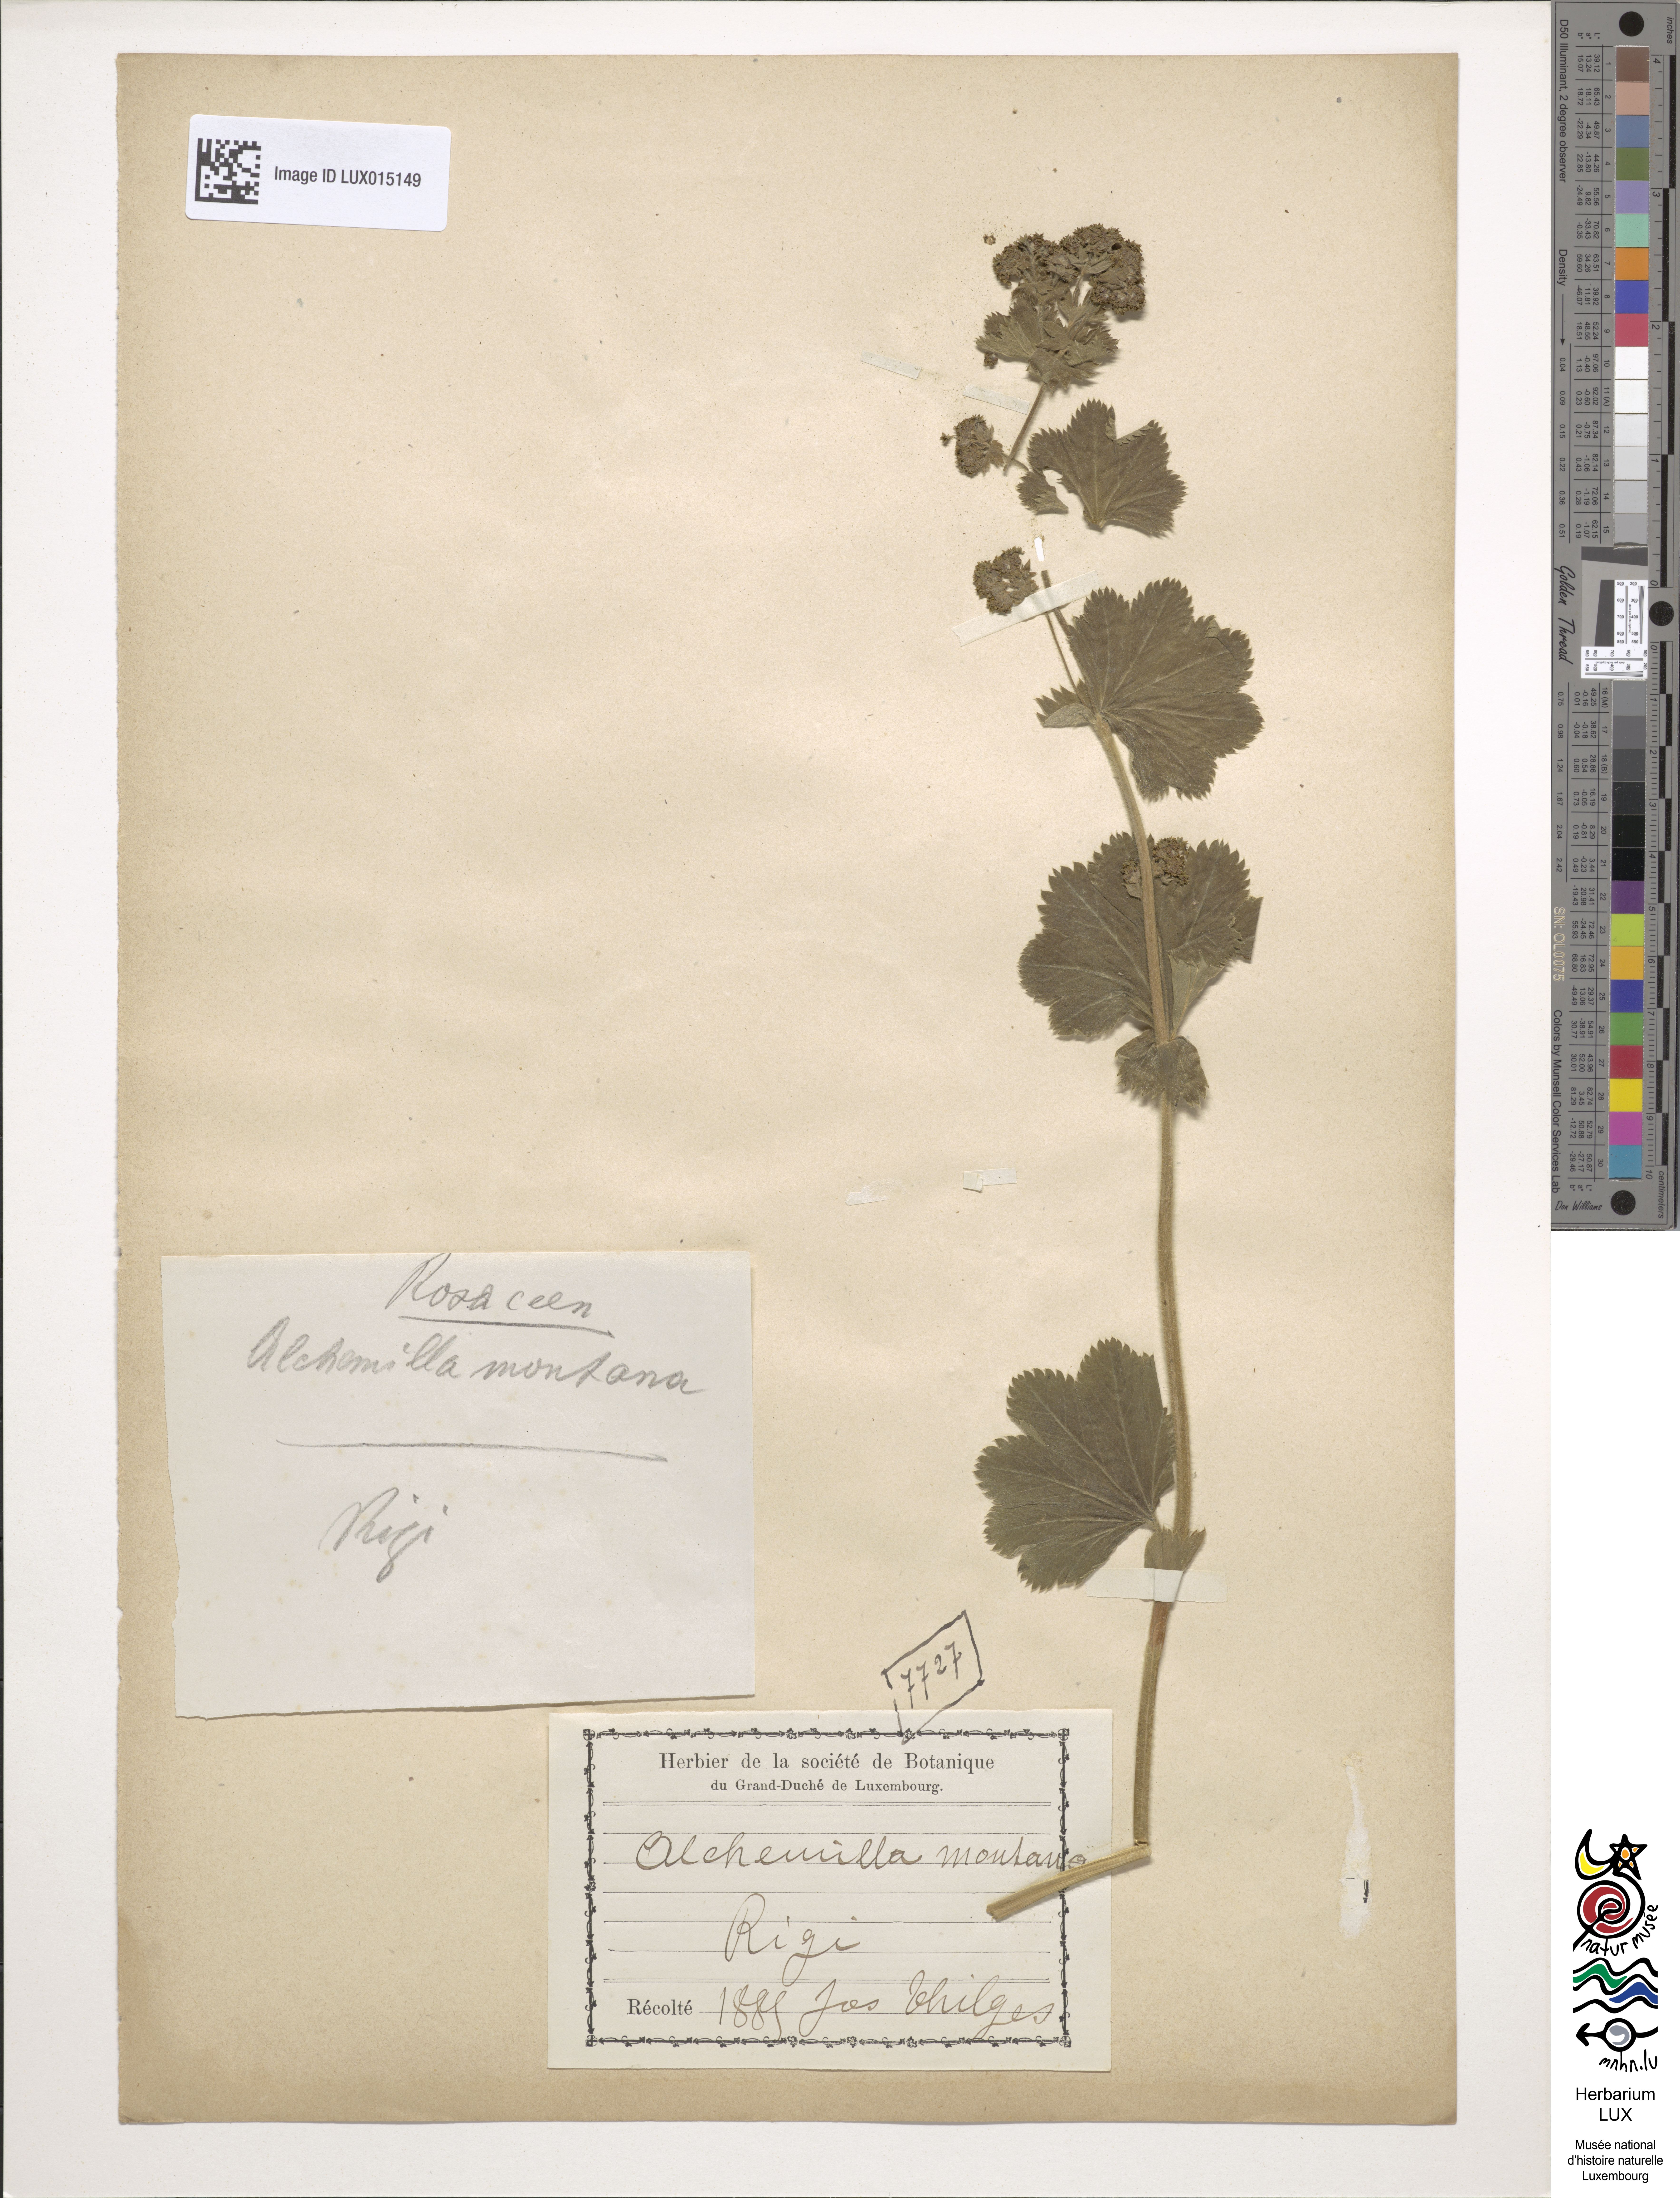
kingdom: Plantae
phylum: Tracheophyta
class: Magnoliopsida
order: Rosales
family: Rosaceae
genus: Alchemilla
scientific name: Alchemilla glaucescens
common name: Silky lady's mantle
